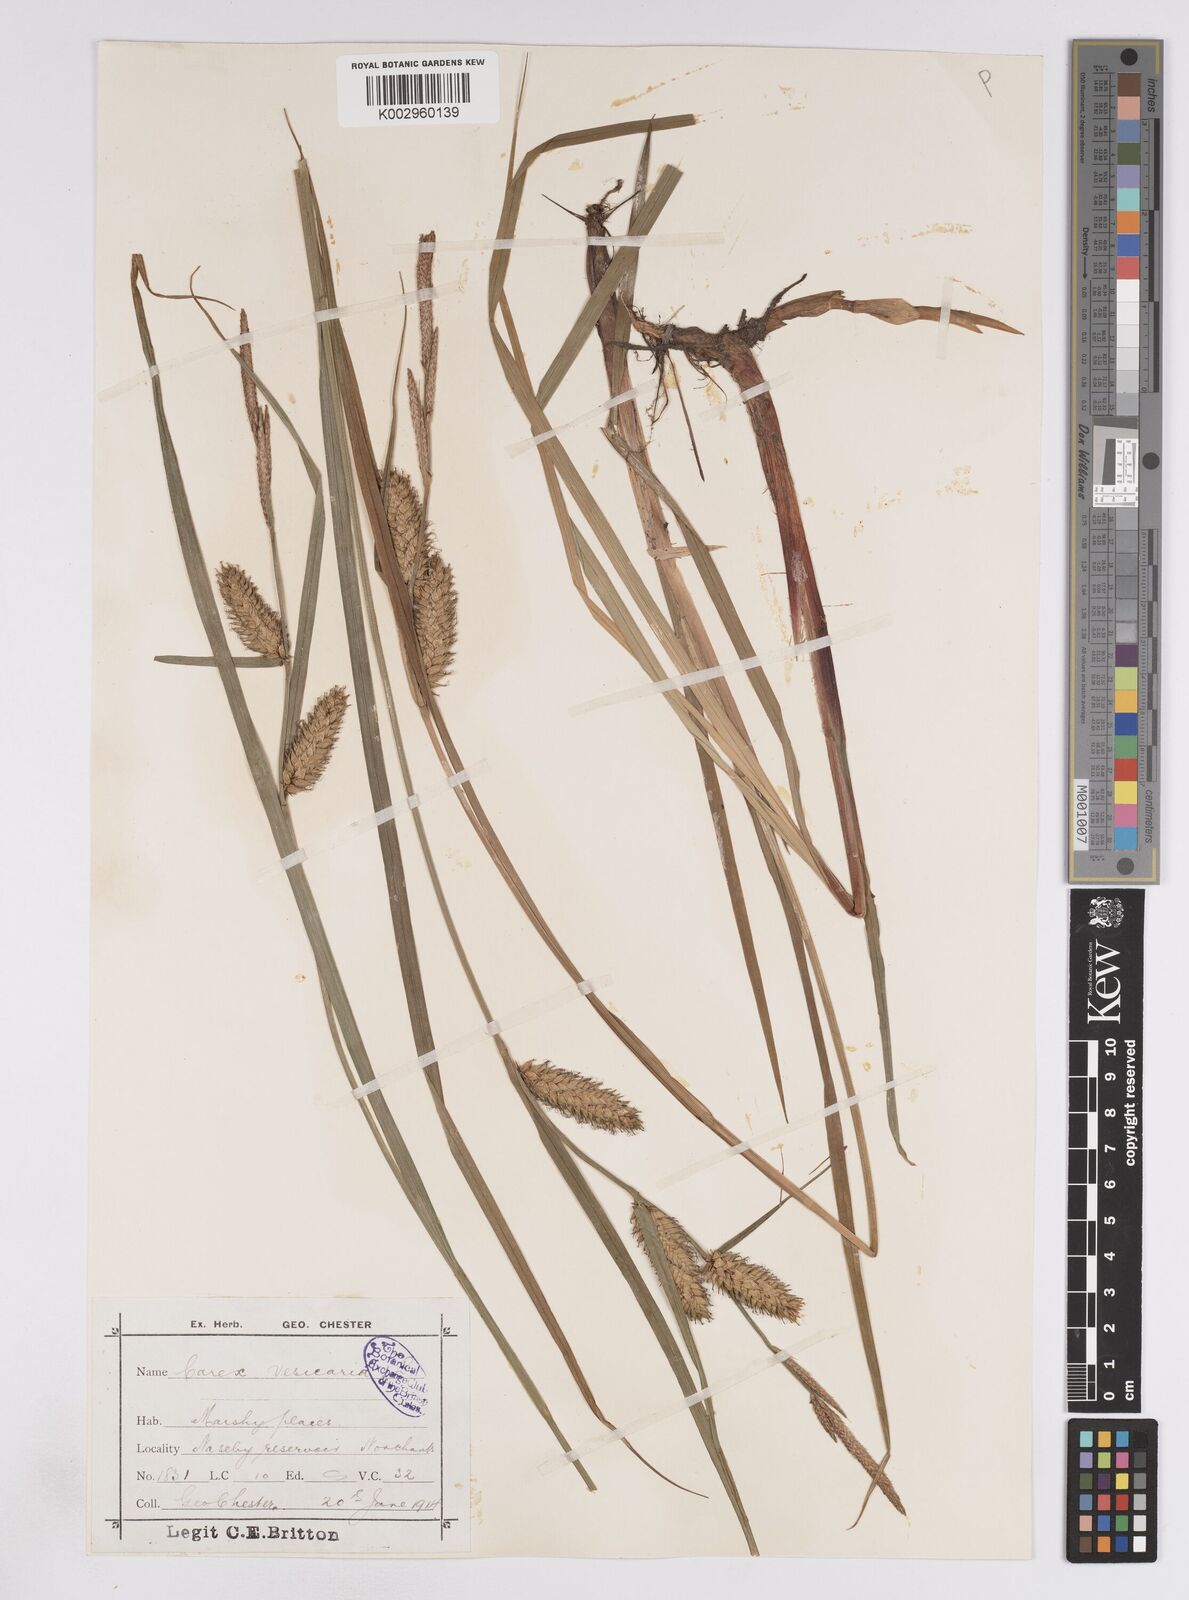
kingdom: Plantae
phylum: Tracheophyta
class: Liliopsida
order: Poales
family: Cyperaceae
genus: Carex
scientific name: Carex vesicaria
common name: Bladder-sedge
